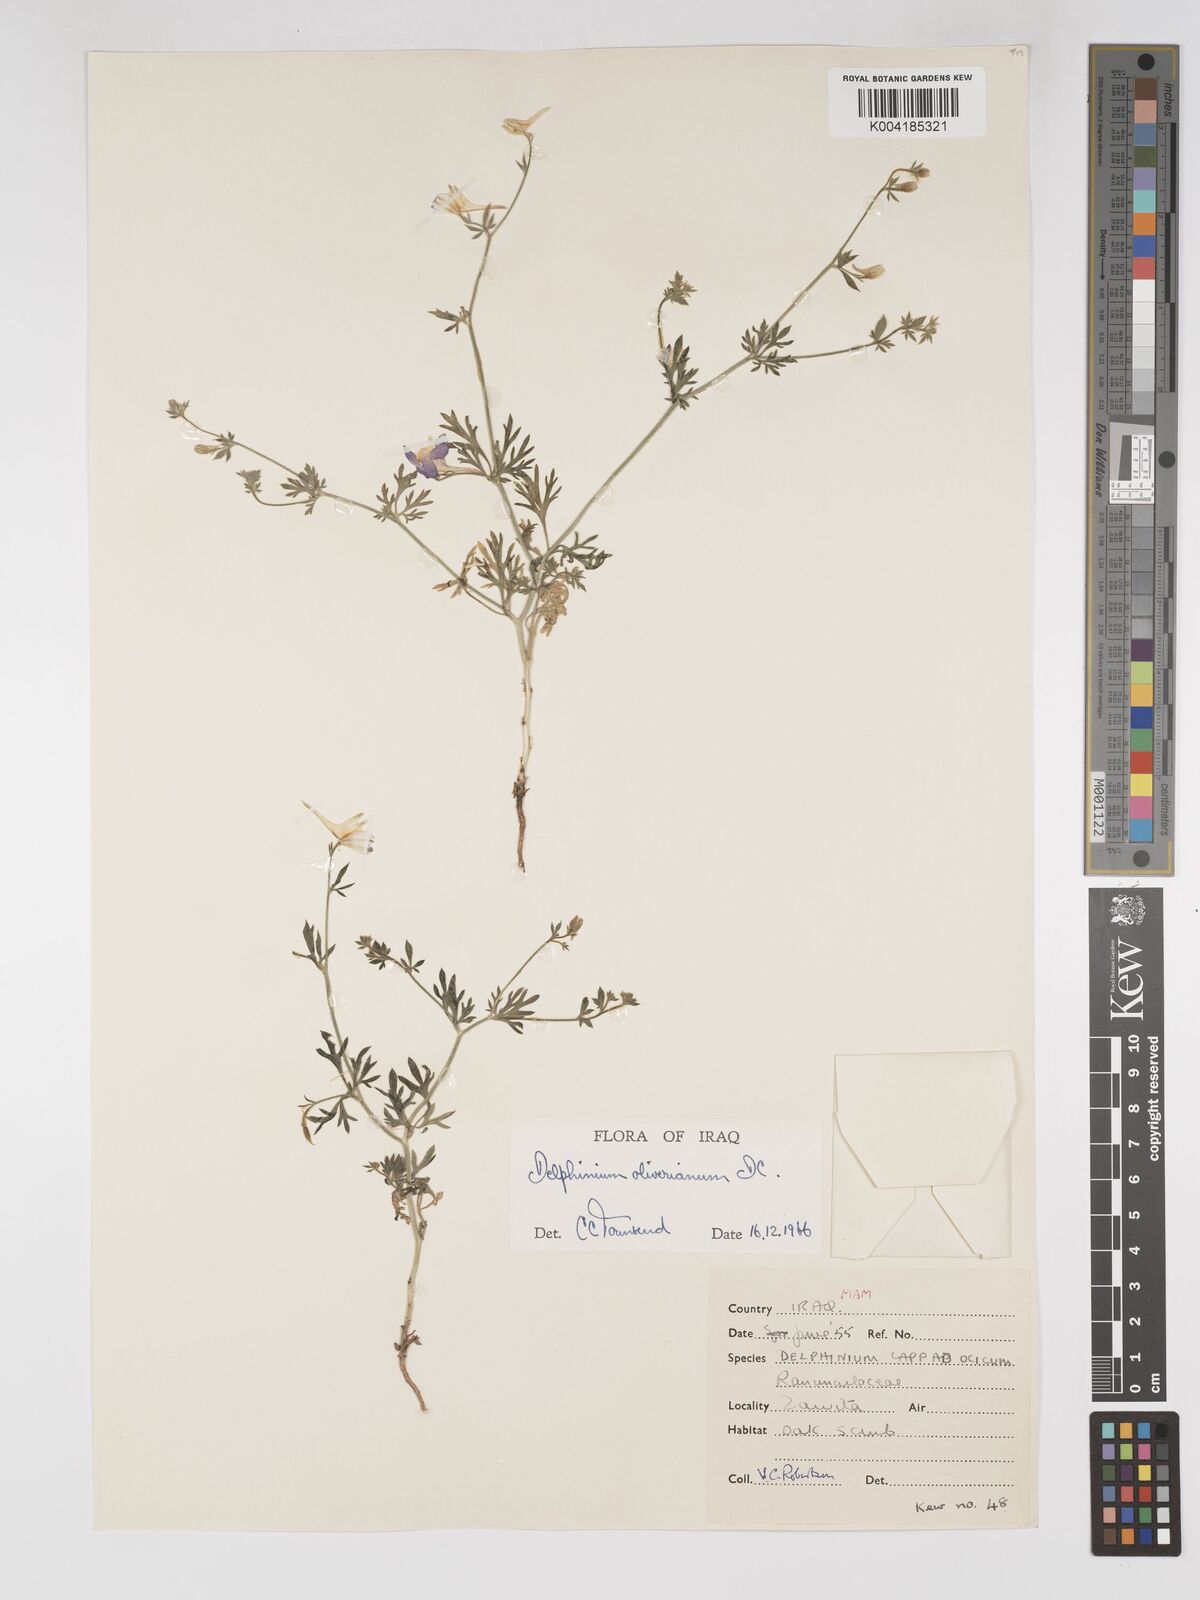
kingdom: Plantae
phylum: Tracheophyta
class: Magnoliopsida
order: Ranunculales
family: Ranunculaceae
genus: Delphinium
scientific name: Delphinium oliverianum
